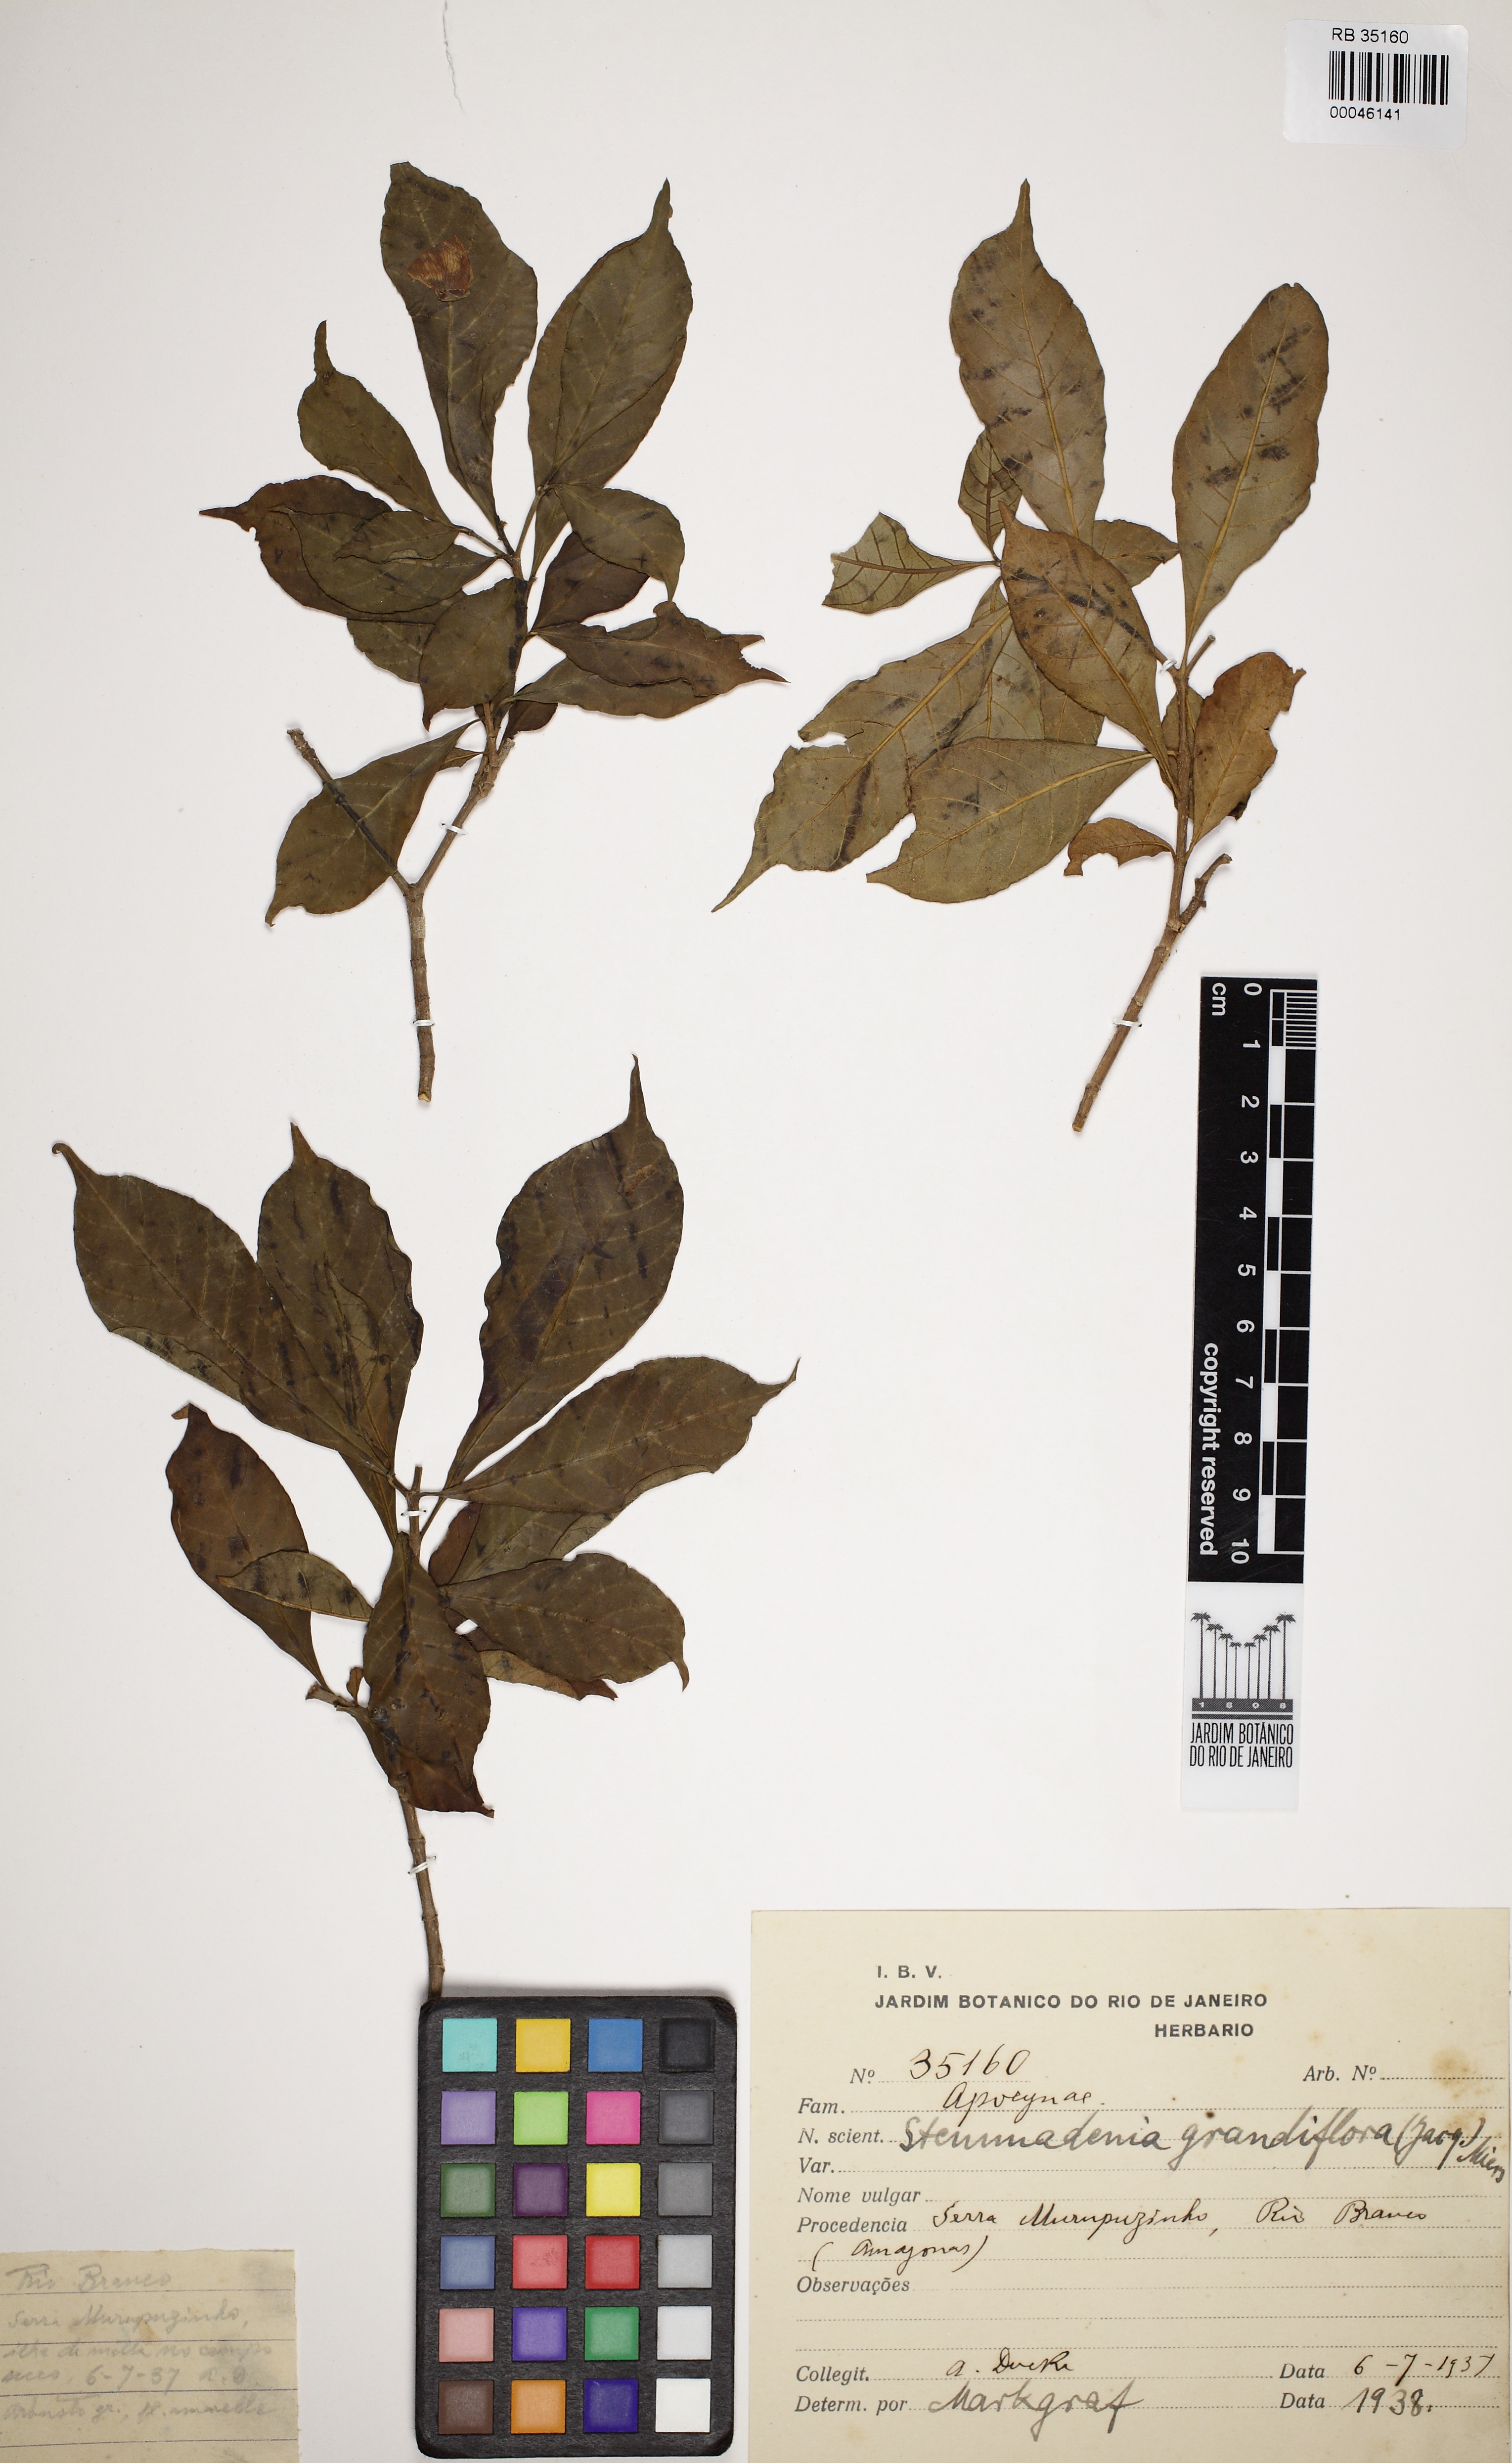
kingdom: Plantae
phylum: Tracheophyta
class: Magnoliopsida
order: Gentianales
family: Apocynaceae
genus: Tabernaemontana
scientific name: Tabernaemontana grandiflora
